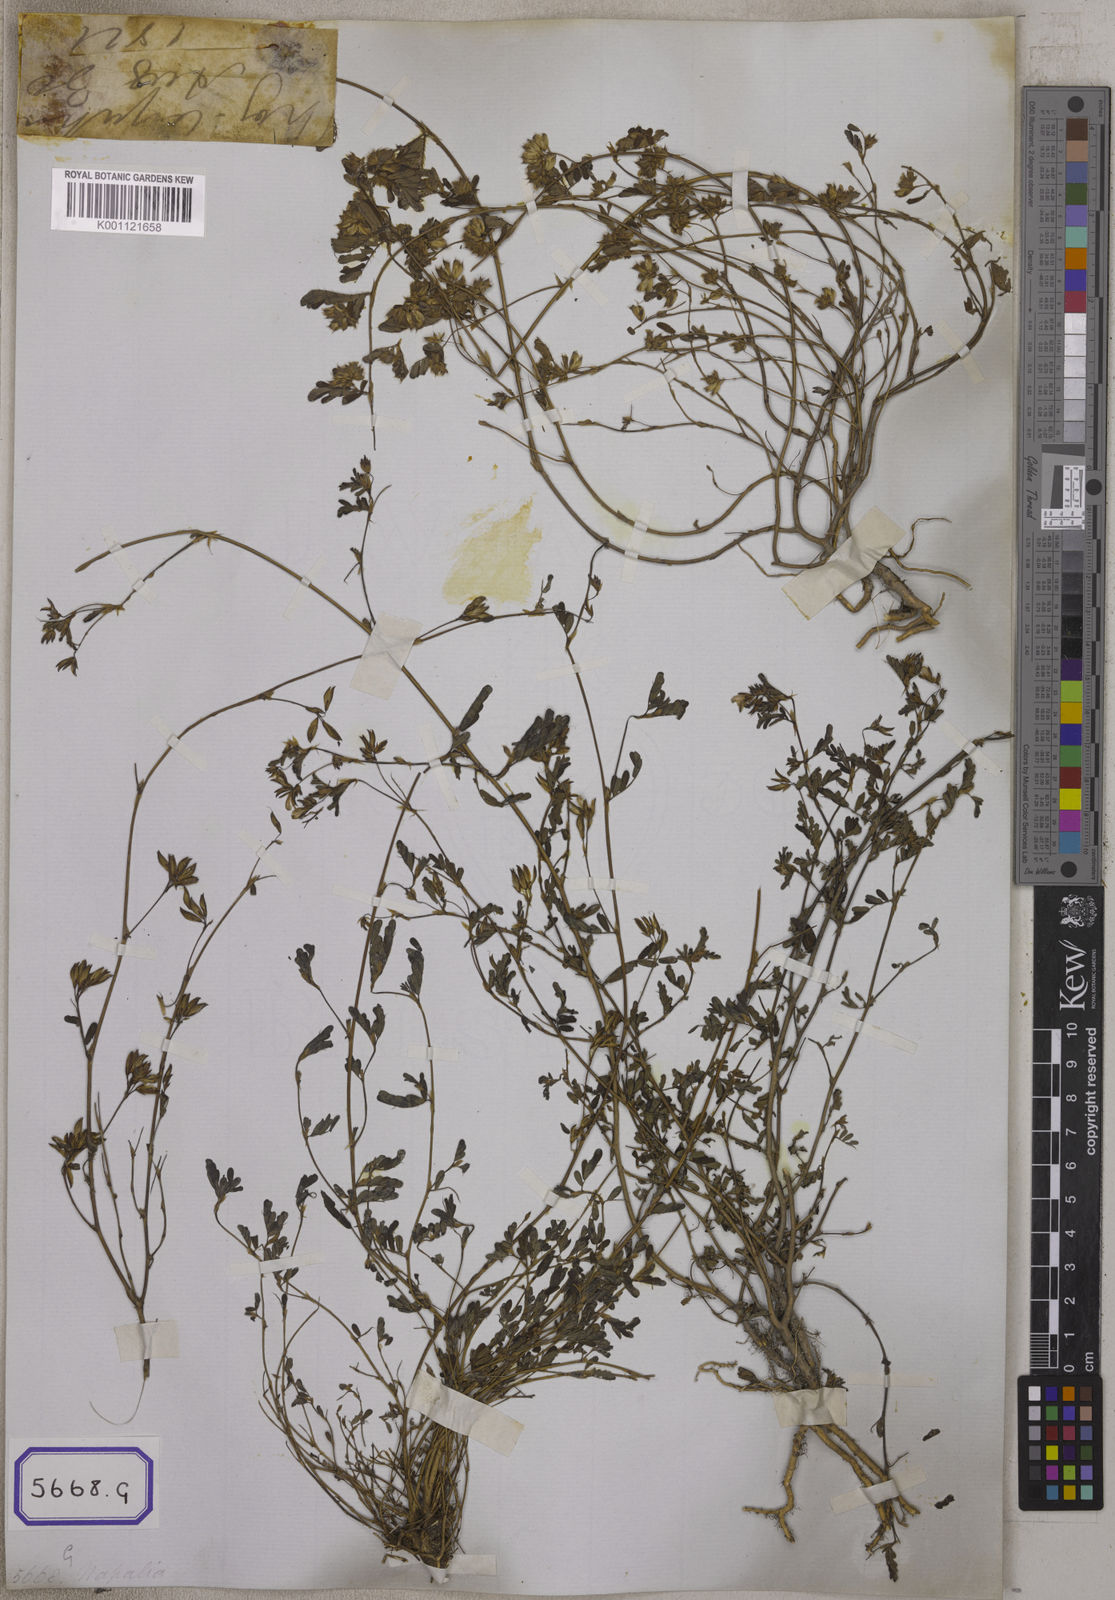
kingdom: Plantae
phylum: Tracheophyta
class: Magnoliopsida
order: Fabales
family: Fabaceae
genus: Smithia
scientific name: Smithia sensitiva
